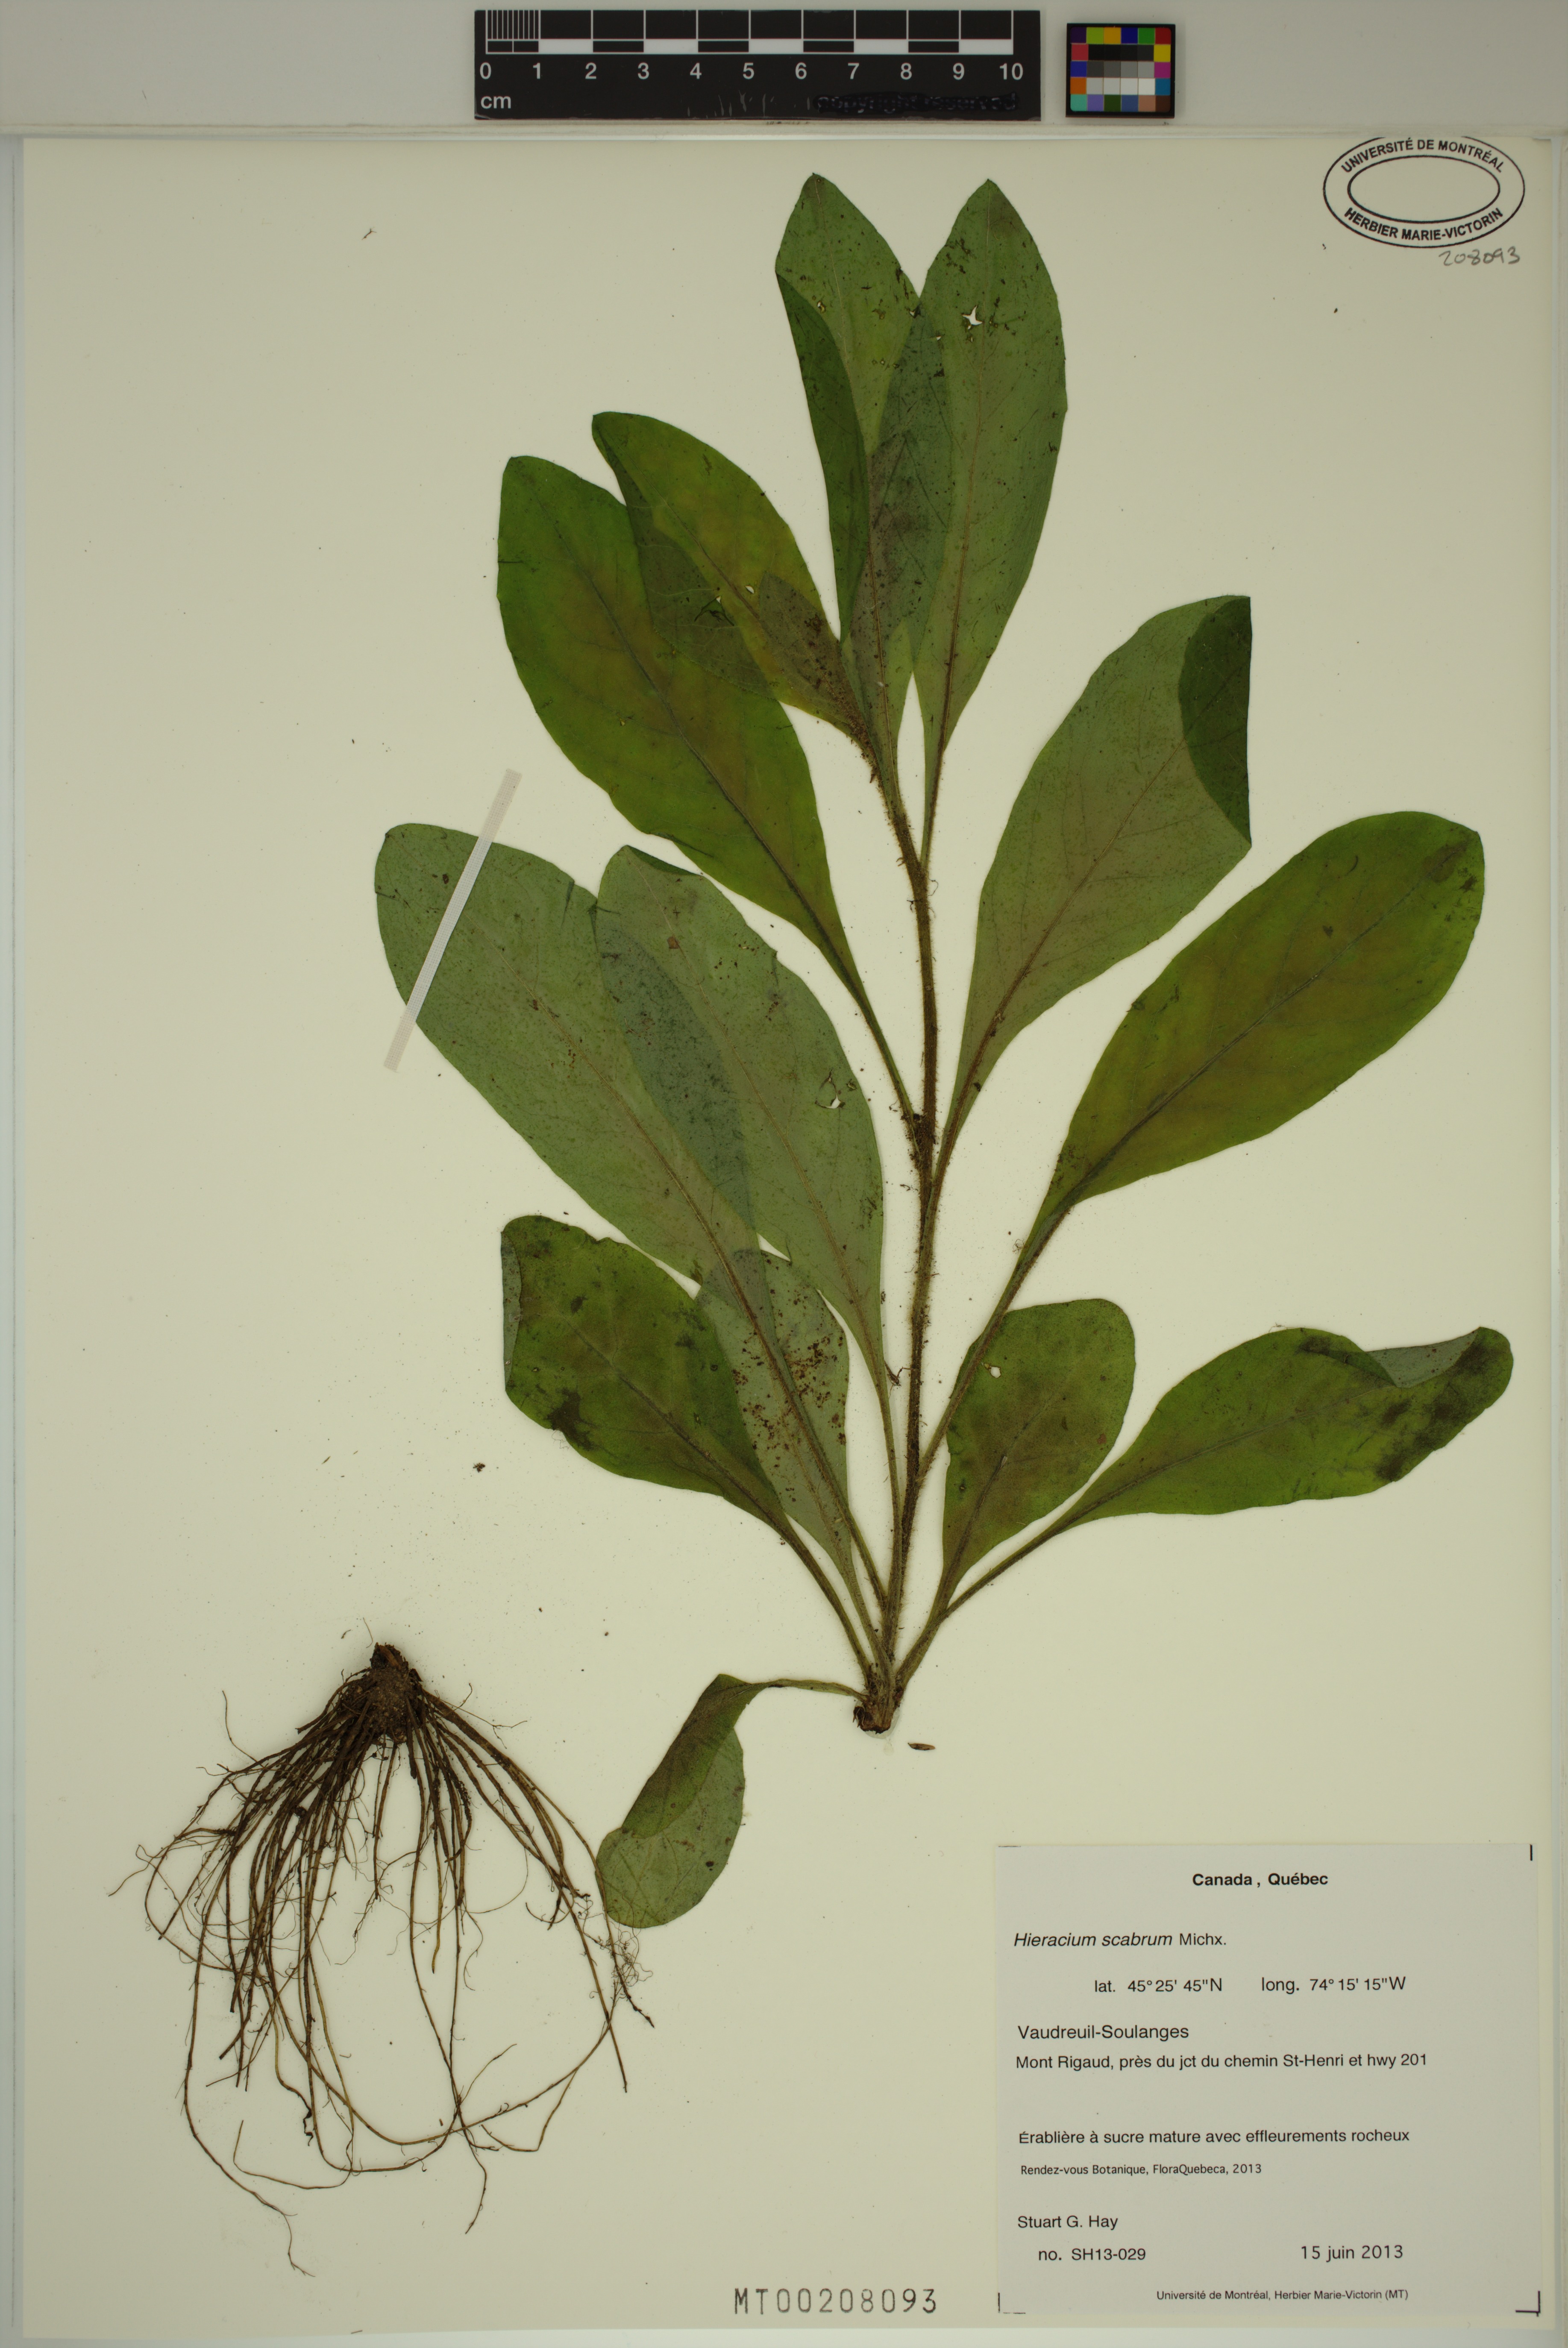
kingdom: Plantae
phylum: Tracheophyta
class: Magnoliopsida
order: Asterales
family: Asteraceae
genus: Hieracium
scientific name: Hieracium scabrum
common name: Rough hawkweed
